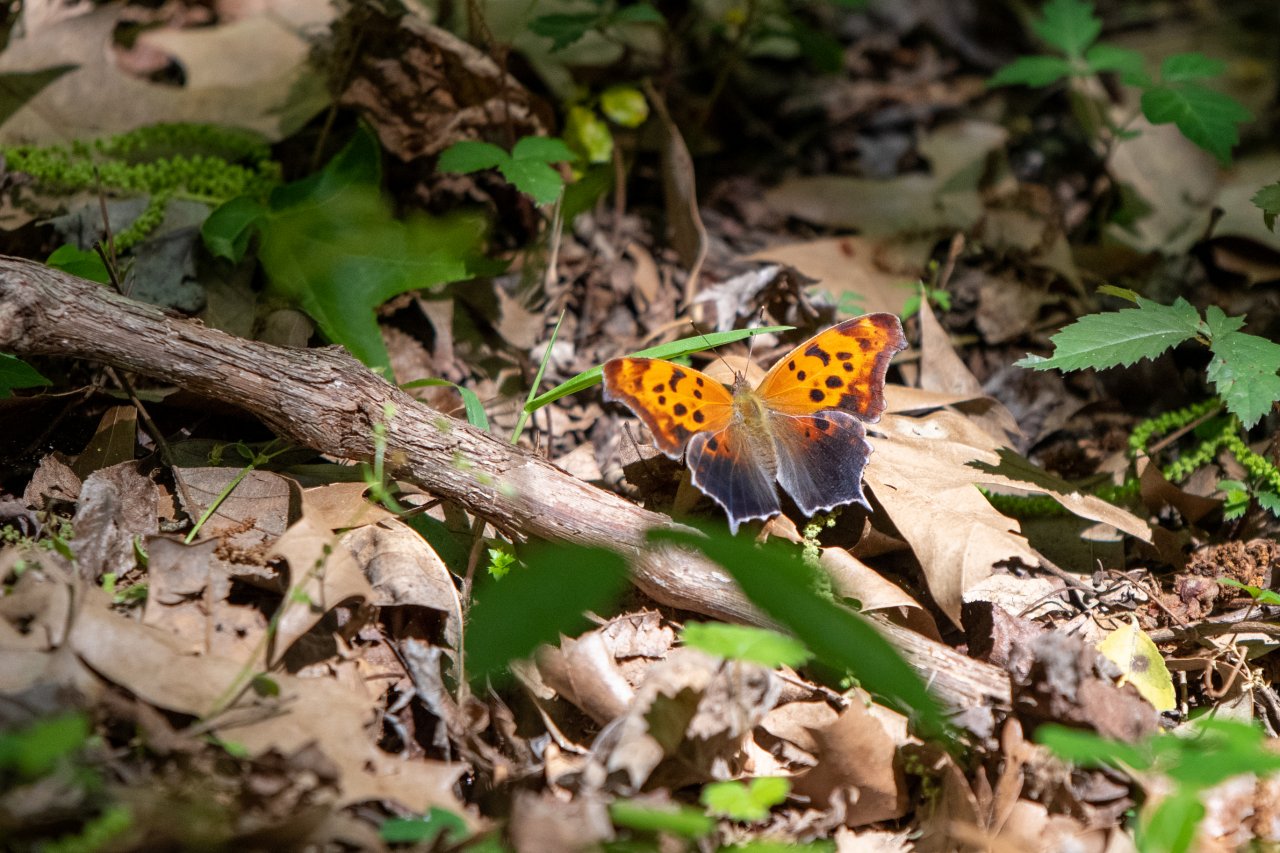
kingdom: Animalia
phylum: Arthropoda
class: Insecta
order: Lepidoptera
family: Nymphalidae
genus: Polygonia
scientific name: Polygonia interrogationis
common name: Question Mark
